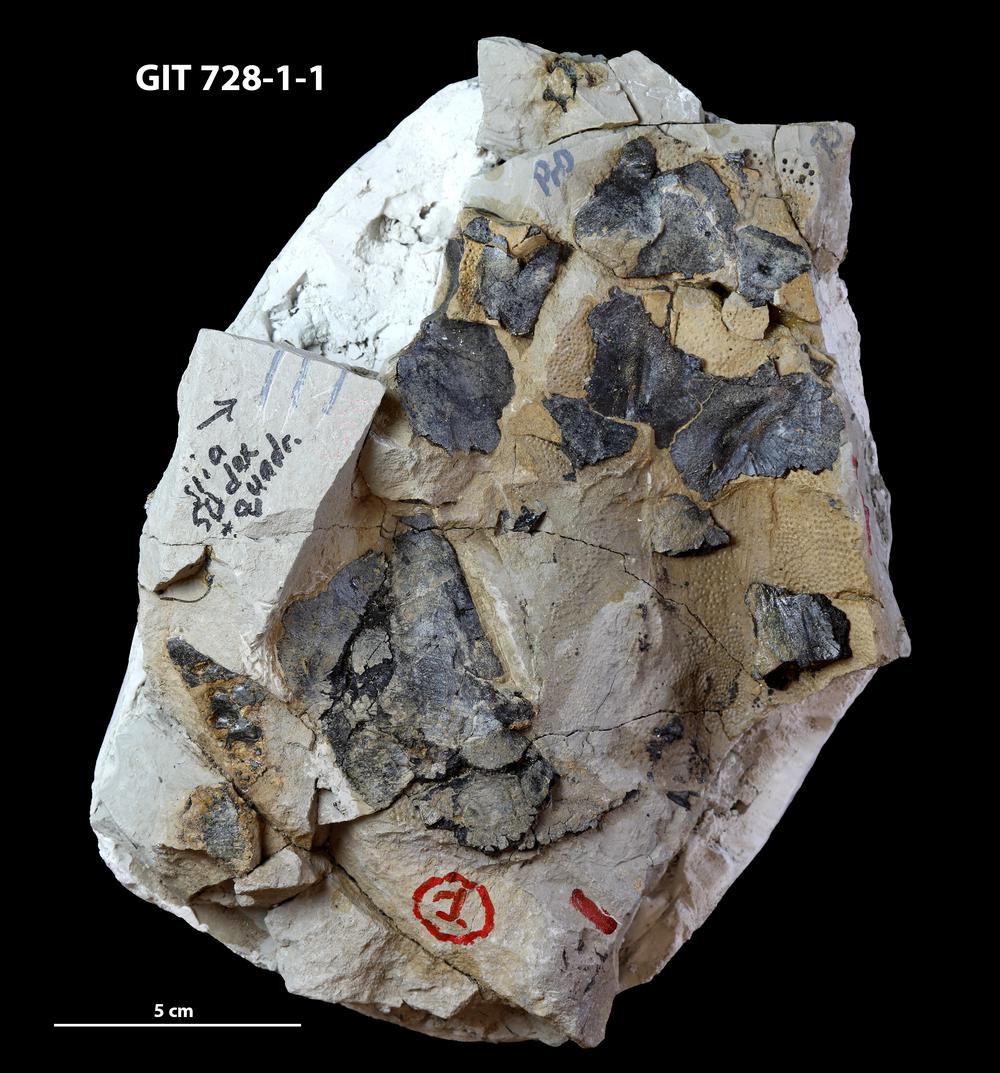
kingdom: Animalia
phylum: Chordata
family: Coccosteidae
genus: Watsonosteus
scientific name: Watsonosteus
